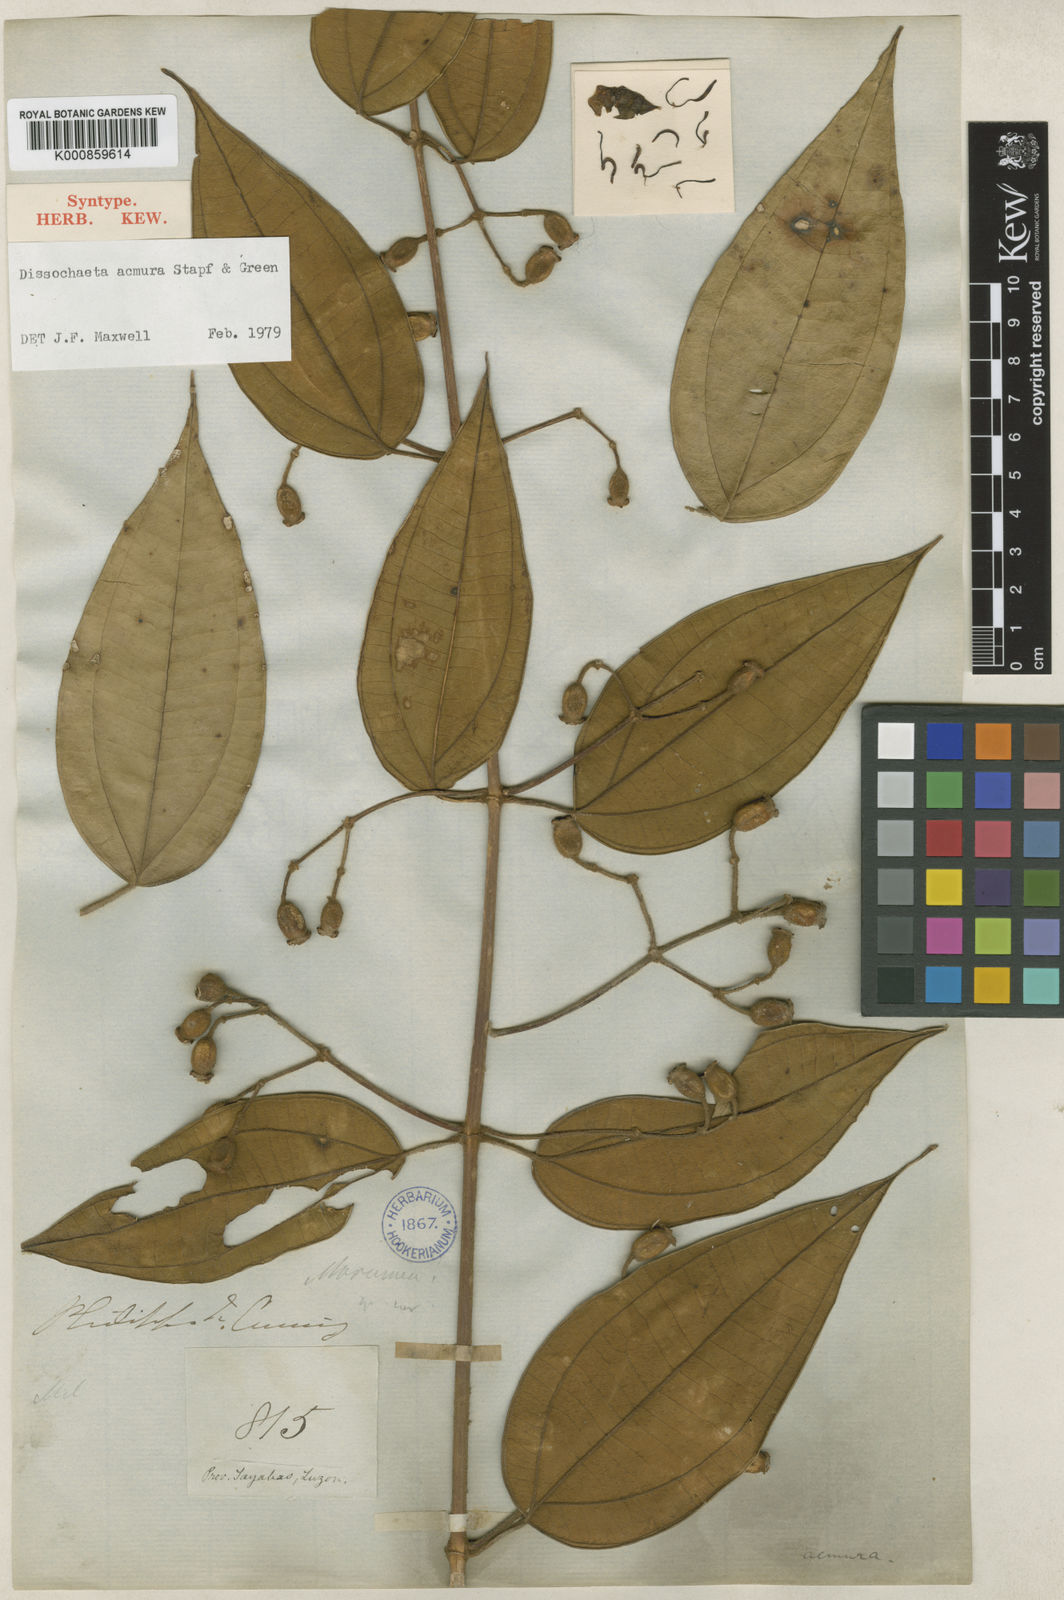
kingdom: Plantae
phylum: Tracheophyta
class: Magnoliopsida
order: Myrtales
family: Melastomataceae
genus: Dissochaeta
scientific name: Dissochaeta acmura
